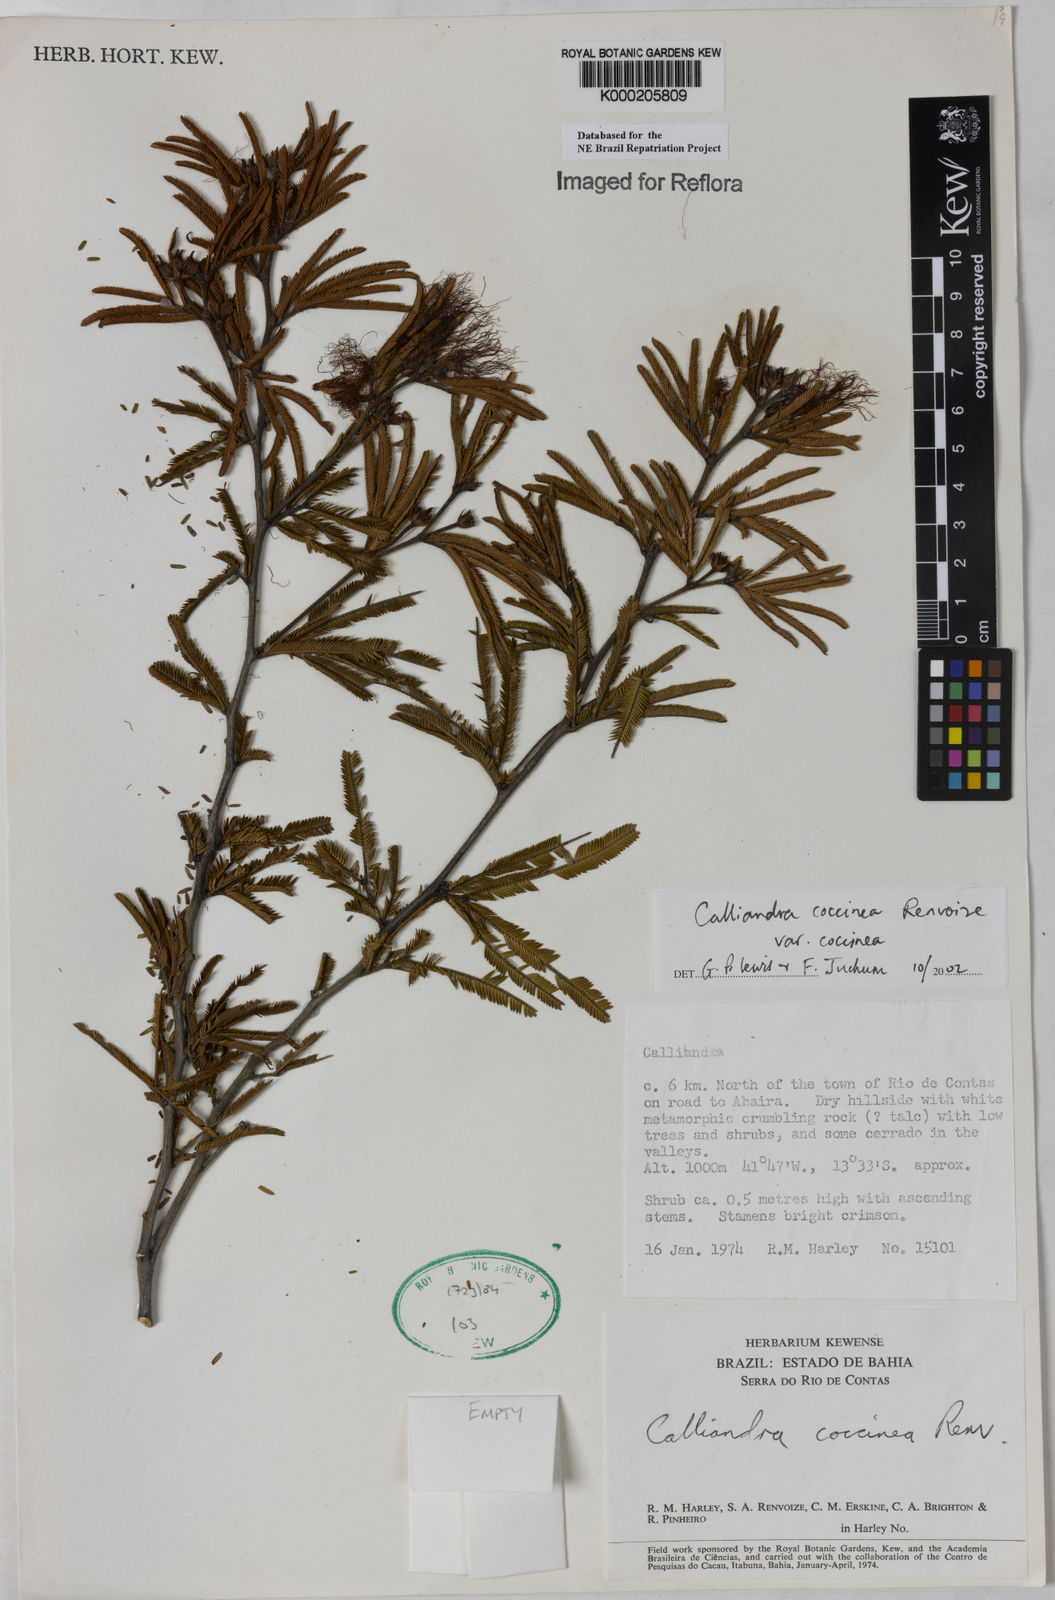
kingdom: Plantae
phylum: Tracheophyta
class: Magnoliopsida
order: Fabales
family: Fabaceae
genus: Calliandra
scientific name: Calliandra coccinea
